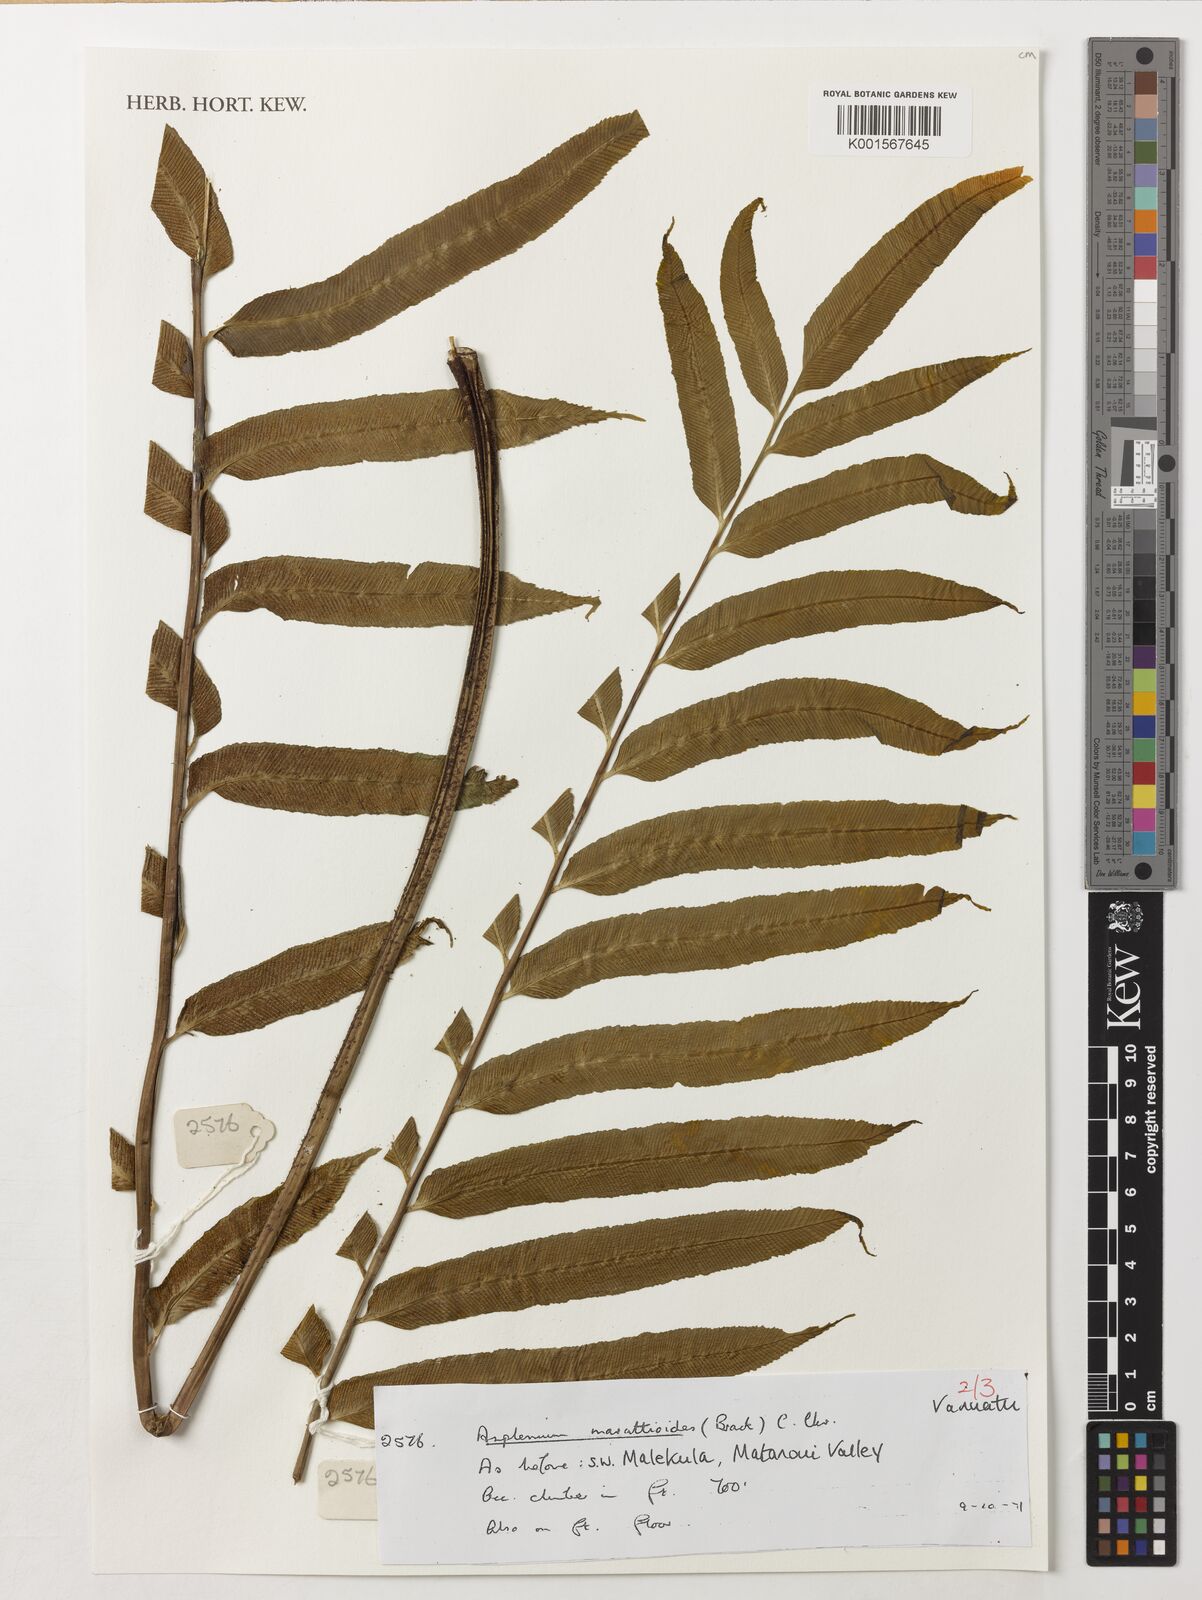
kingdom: Plantae
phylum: Tracheophyta
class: Polypodiopsida
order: Polypodiales
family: Aspleniaceae
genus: Asplenium
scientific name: Asplenium marattioides
